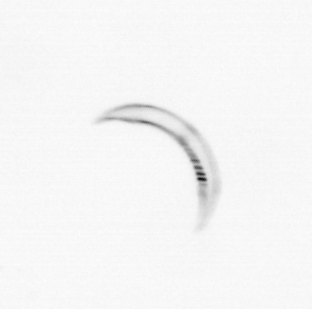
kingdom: Chromista
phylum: Ochrophyta
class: Bacillariophyceae
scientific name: Bacillariophyceae
